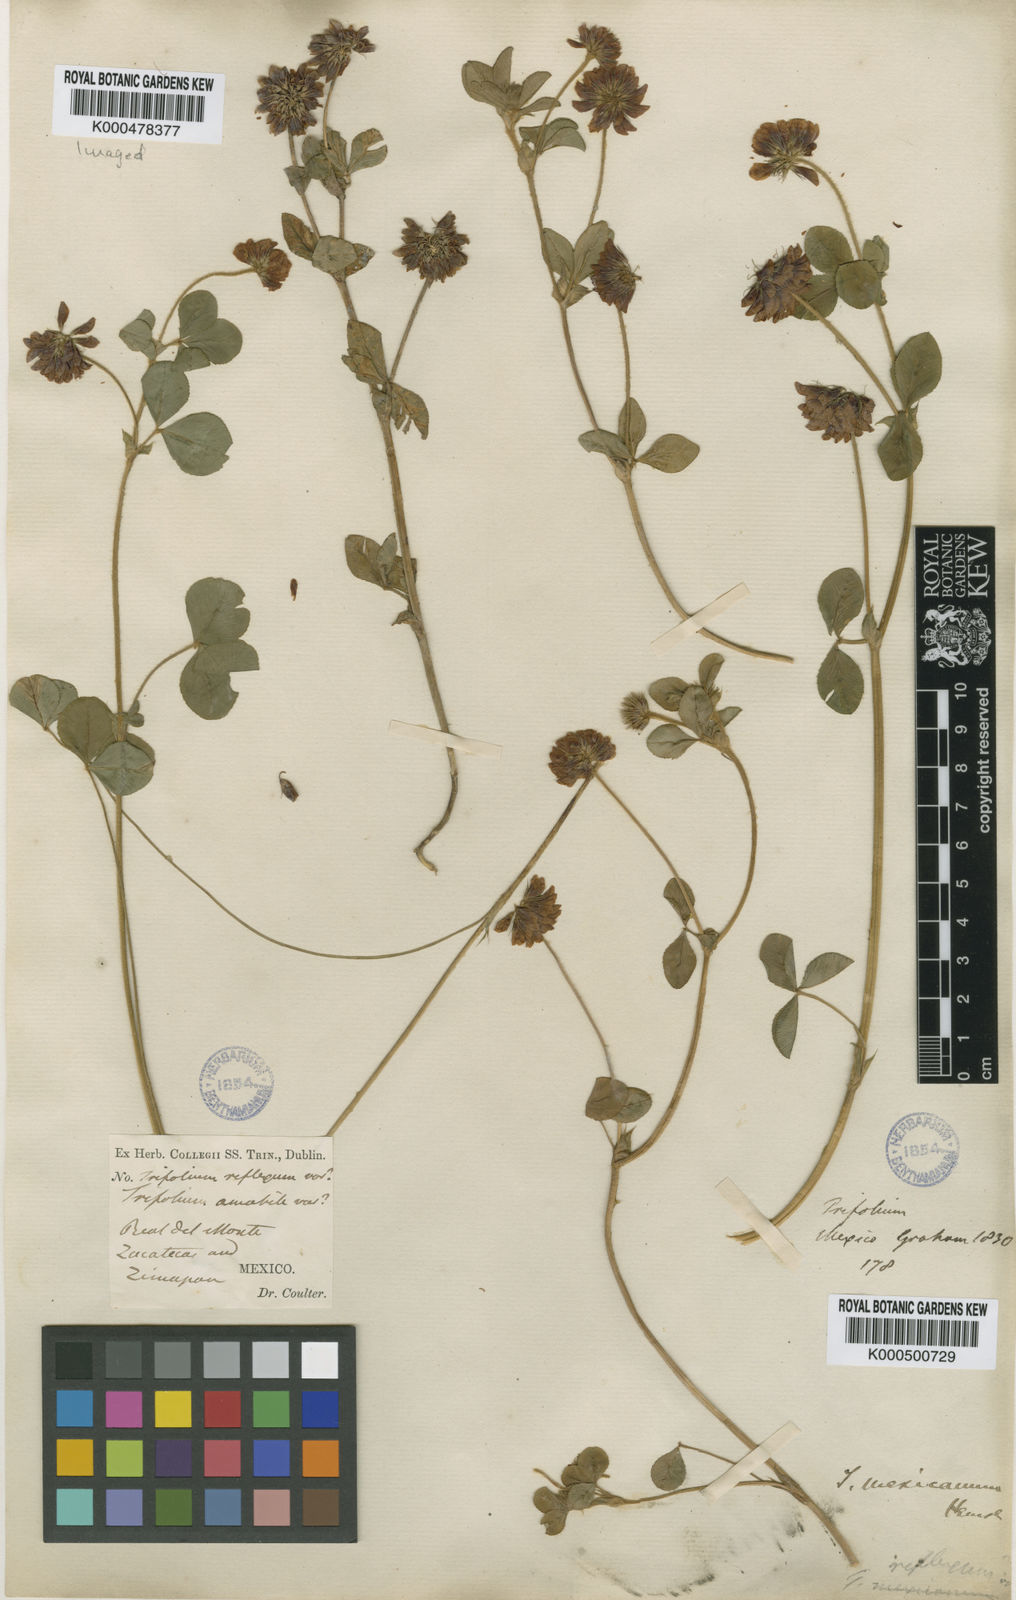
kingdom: Plantae
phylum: Tracheophyta
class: Magnoliopsida
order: Fabales
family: Fabaceae
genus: Trifolium
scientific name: Trifolium amabile
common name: Aztec clover
